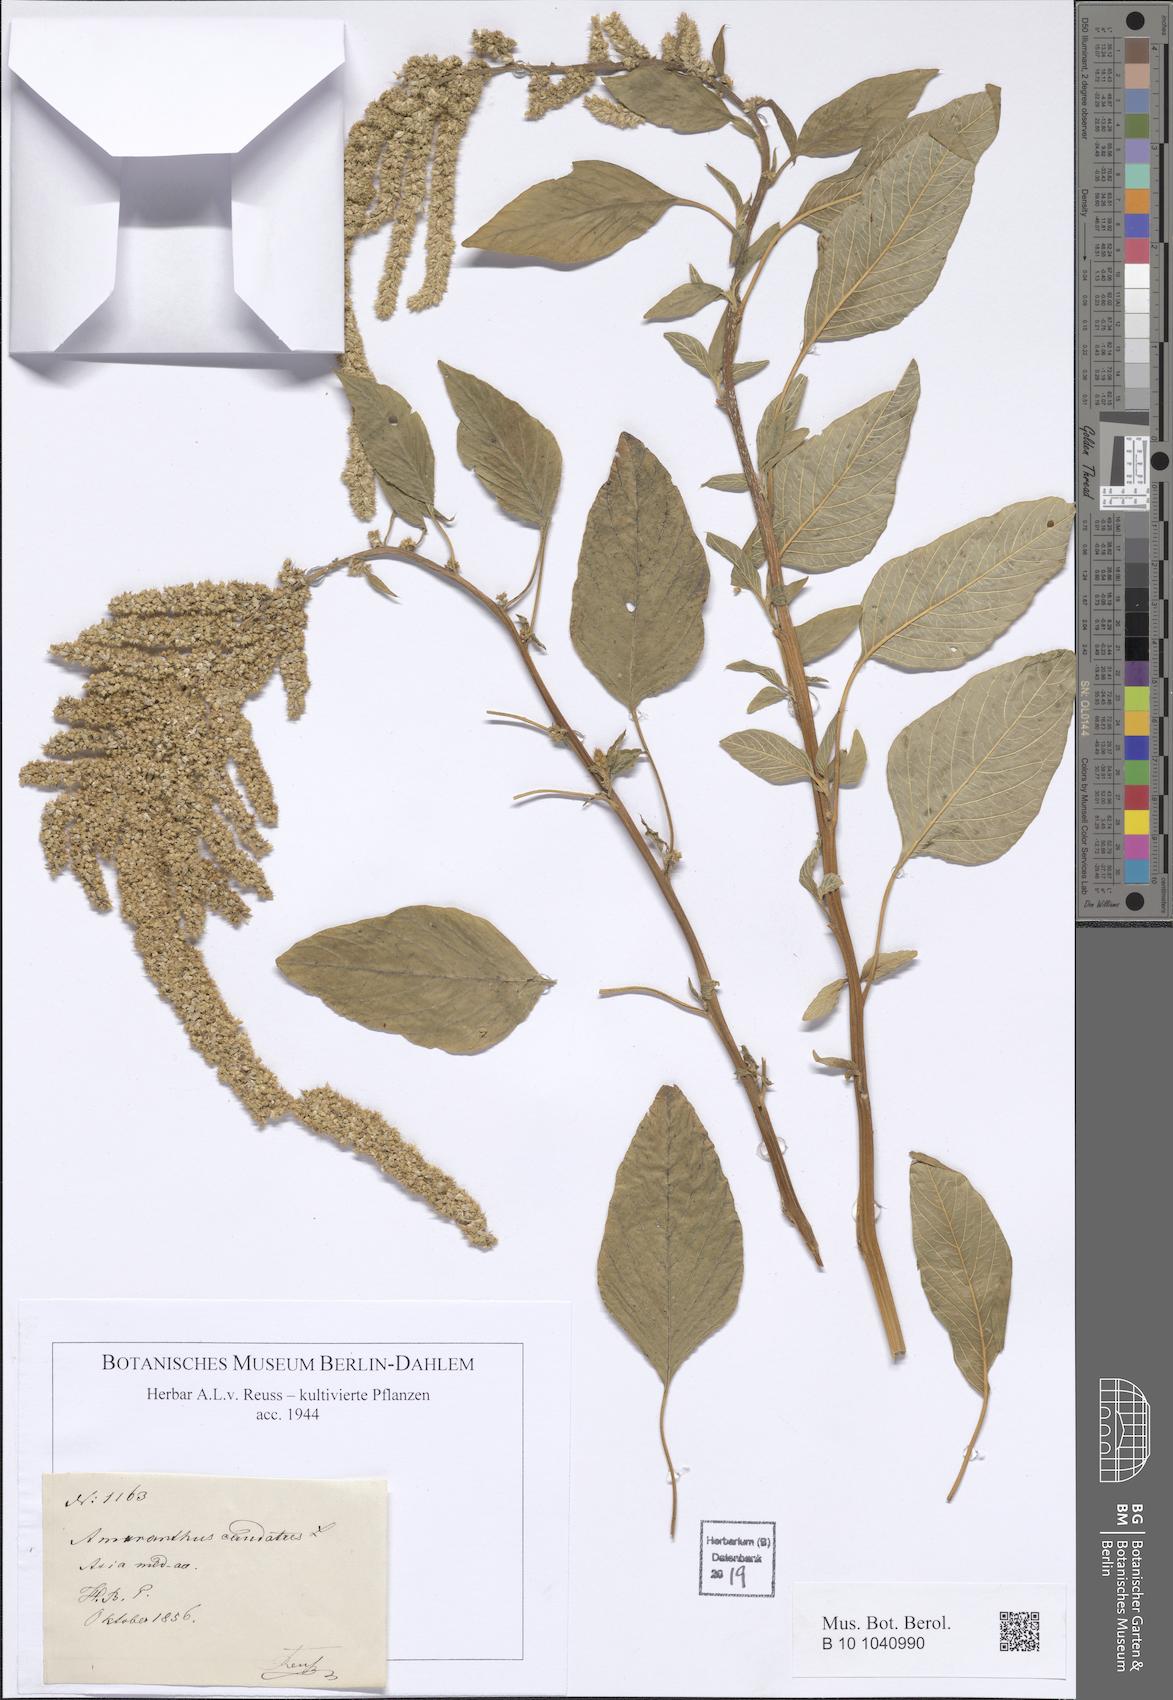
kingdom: Plantae
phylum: Tracheophyta
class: Magnoliopsida
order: Caryophyllales
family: Amaranthaceae
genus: Amaranthus
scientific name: Amaranthus caudatus
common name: Love-lies-bleeding
